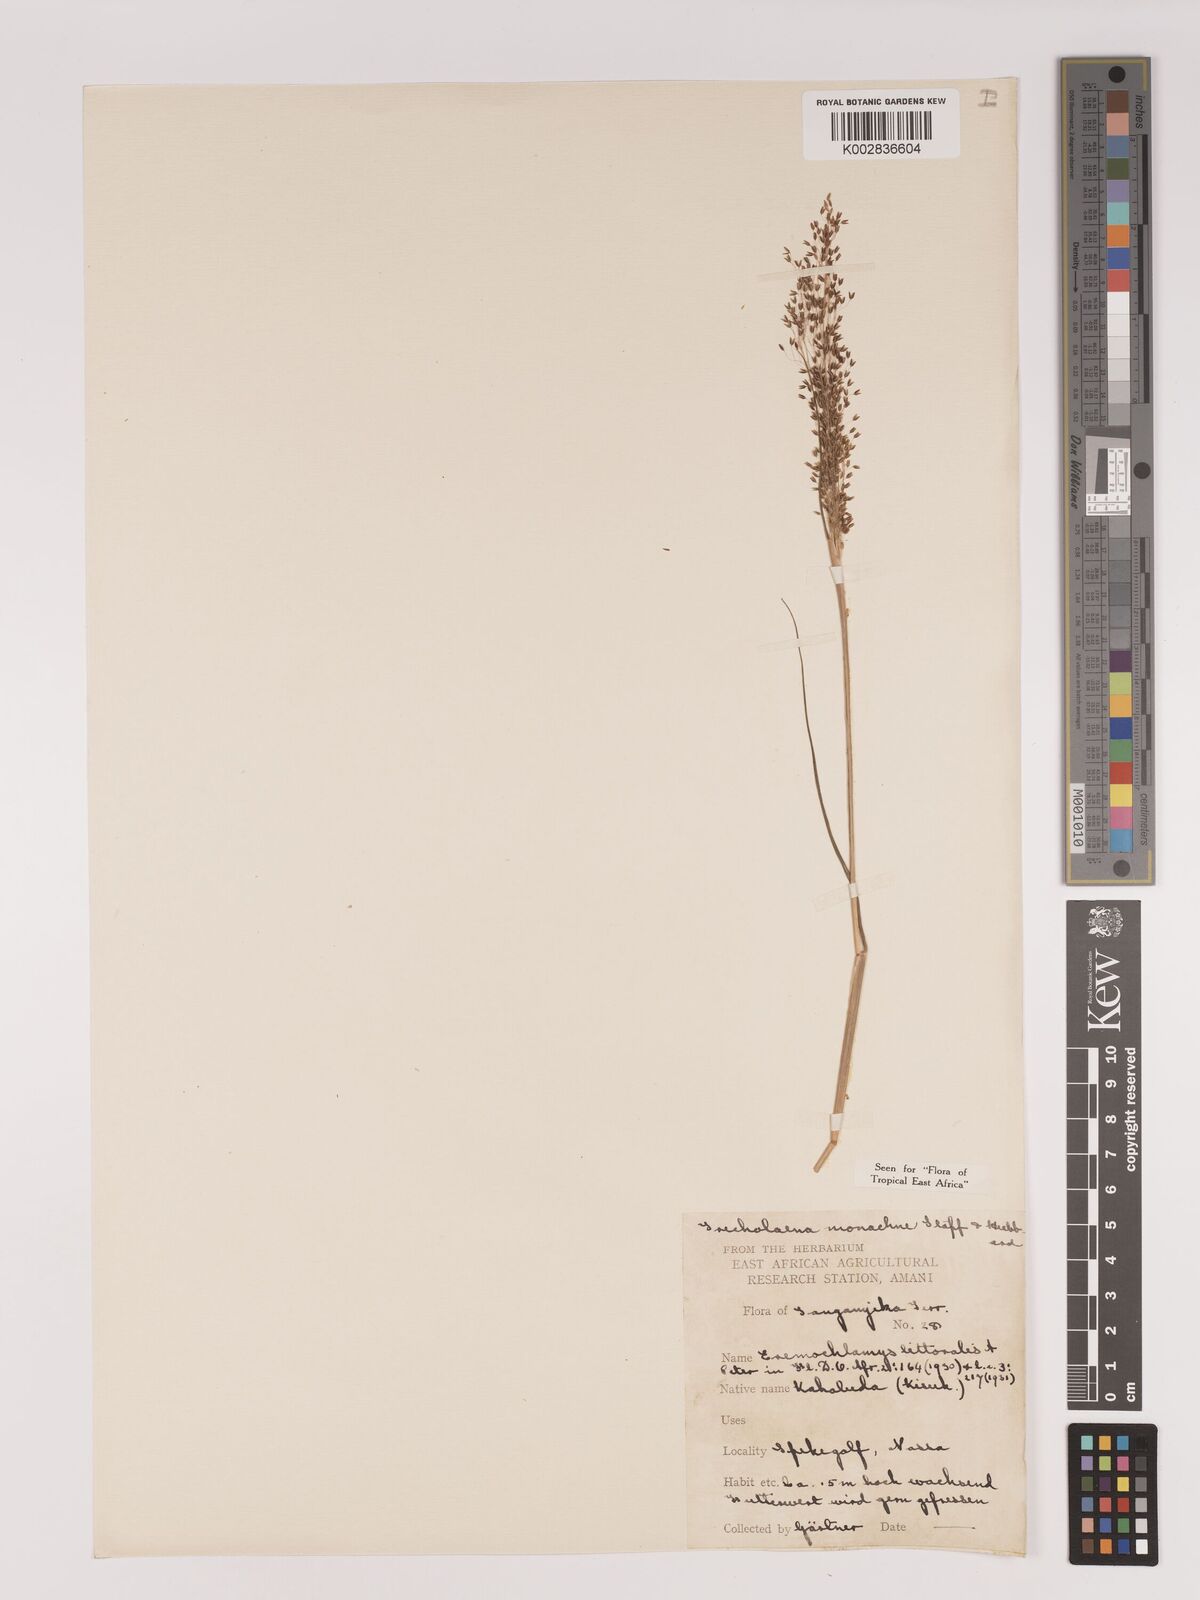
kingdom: Plantae
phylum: Tracheophyta
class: Liliopsida
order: Poales
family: Poaceae
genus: Tricholaena
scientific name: Tricholaena monachne
